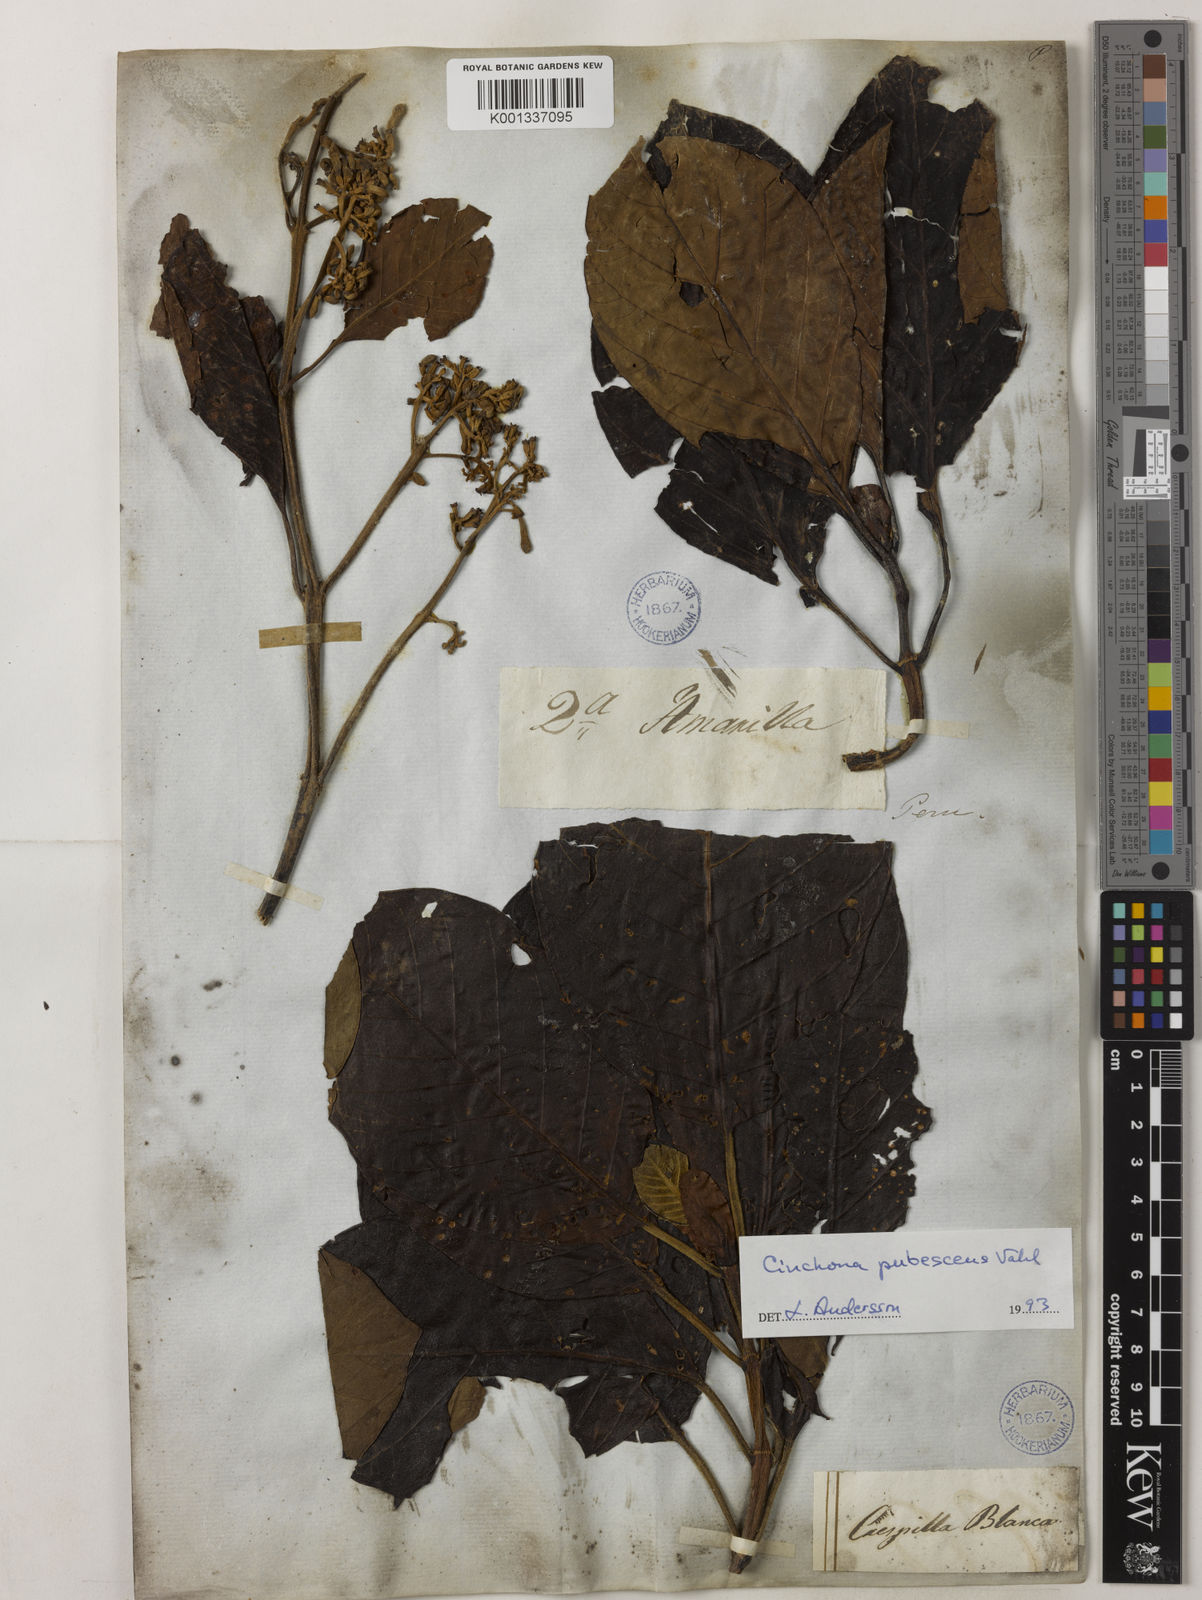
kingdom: Plantae
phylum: Tracheophyta
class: Magnoliopsida
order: Gentianales
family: Rubiaceae
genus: Cinchona
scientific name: Cinchona pubescens
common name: Quinine
